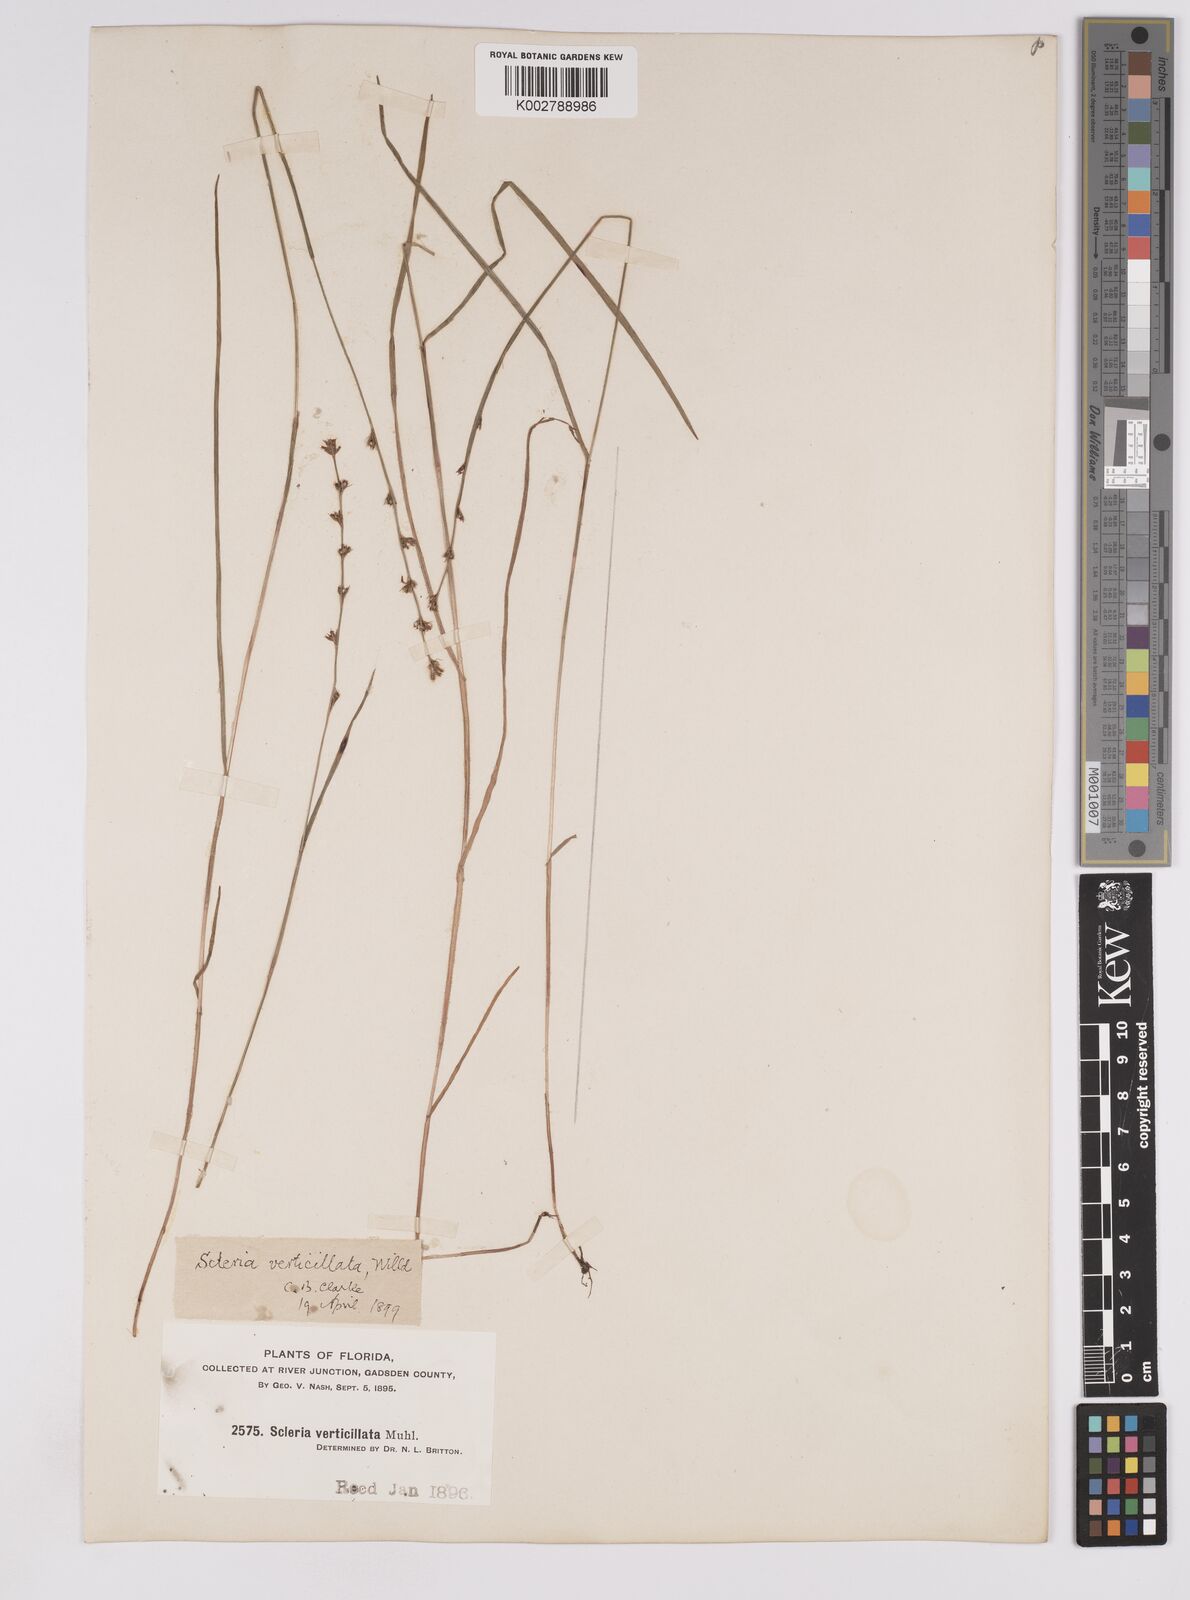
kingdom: Plantae
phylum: Tracheophyta
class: Liliopsida
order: Poales
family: Cyperaceae
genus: Scleria
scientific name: Scleria verticillata
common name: Low nutrush
